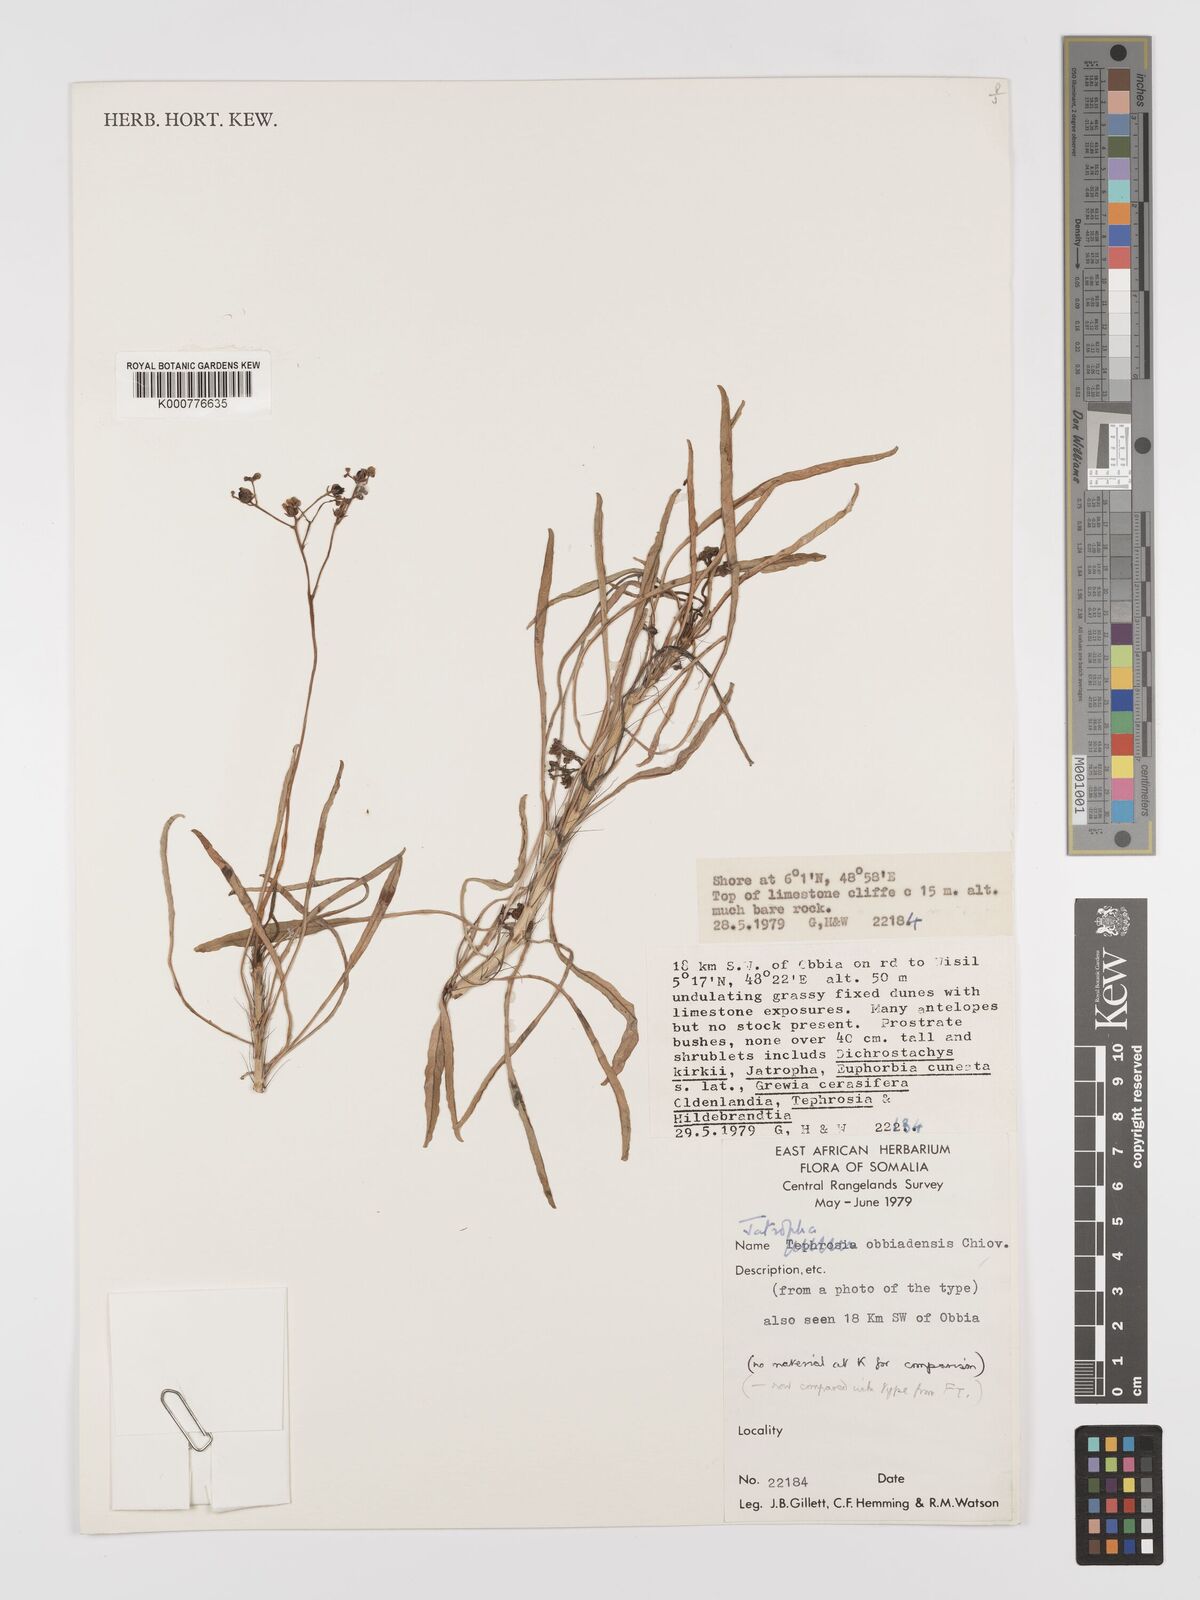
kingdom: Plantae
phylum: Tracheophyta
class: Magnoliopsida
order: Malpighiales
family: Euphorbiaceae
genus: Jatropha
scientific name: Jatropha obbiadensis
